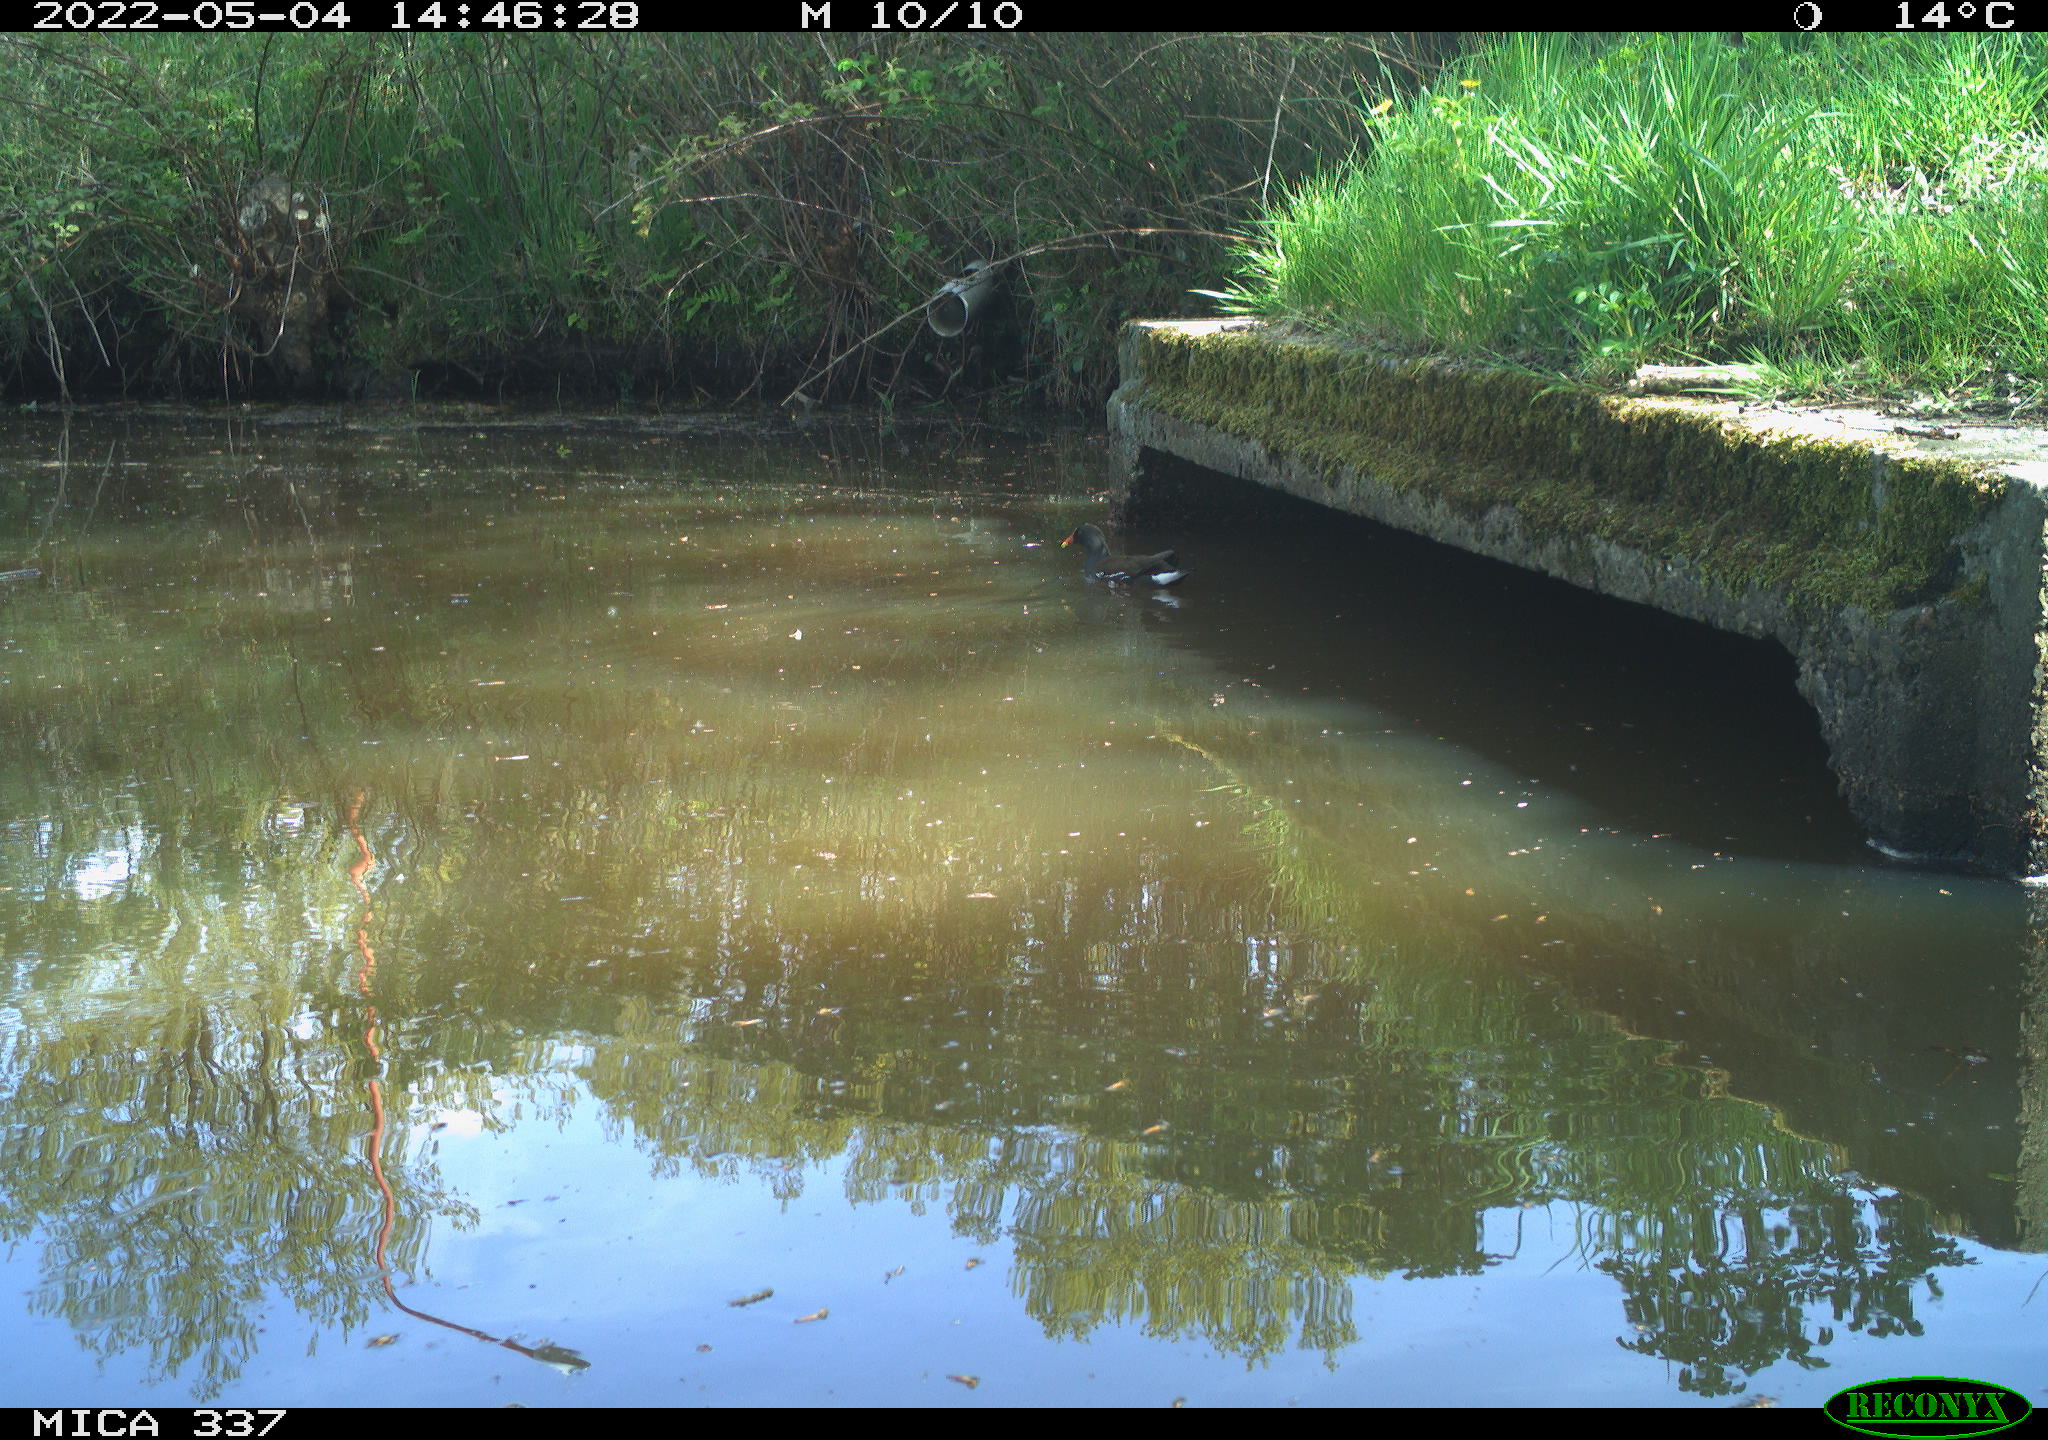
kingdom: Animalia
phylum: Chordata
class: Aves
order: Gruiformes
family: Rallidae
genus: Gallinula
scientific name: Gallinula chloropus
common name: Common moorhen
